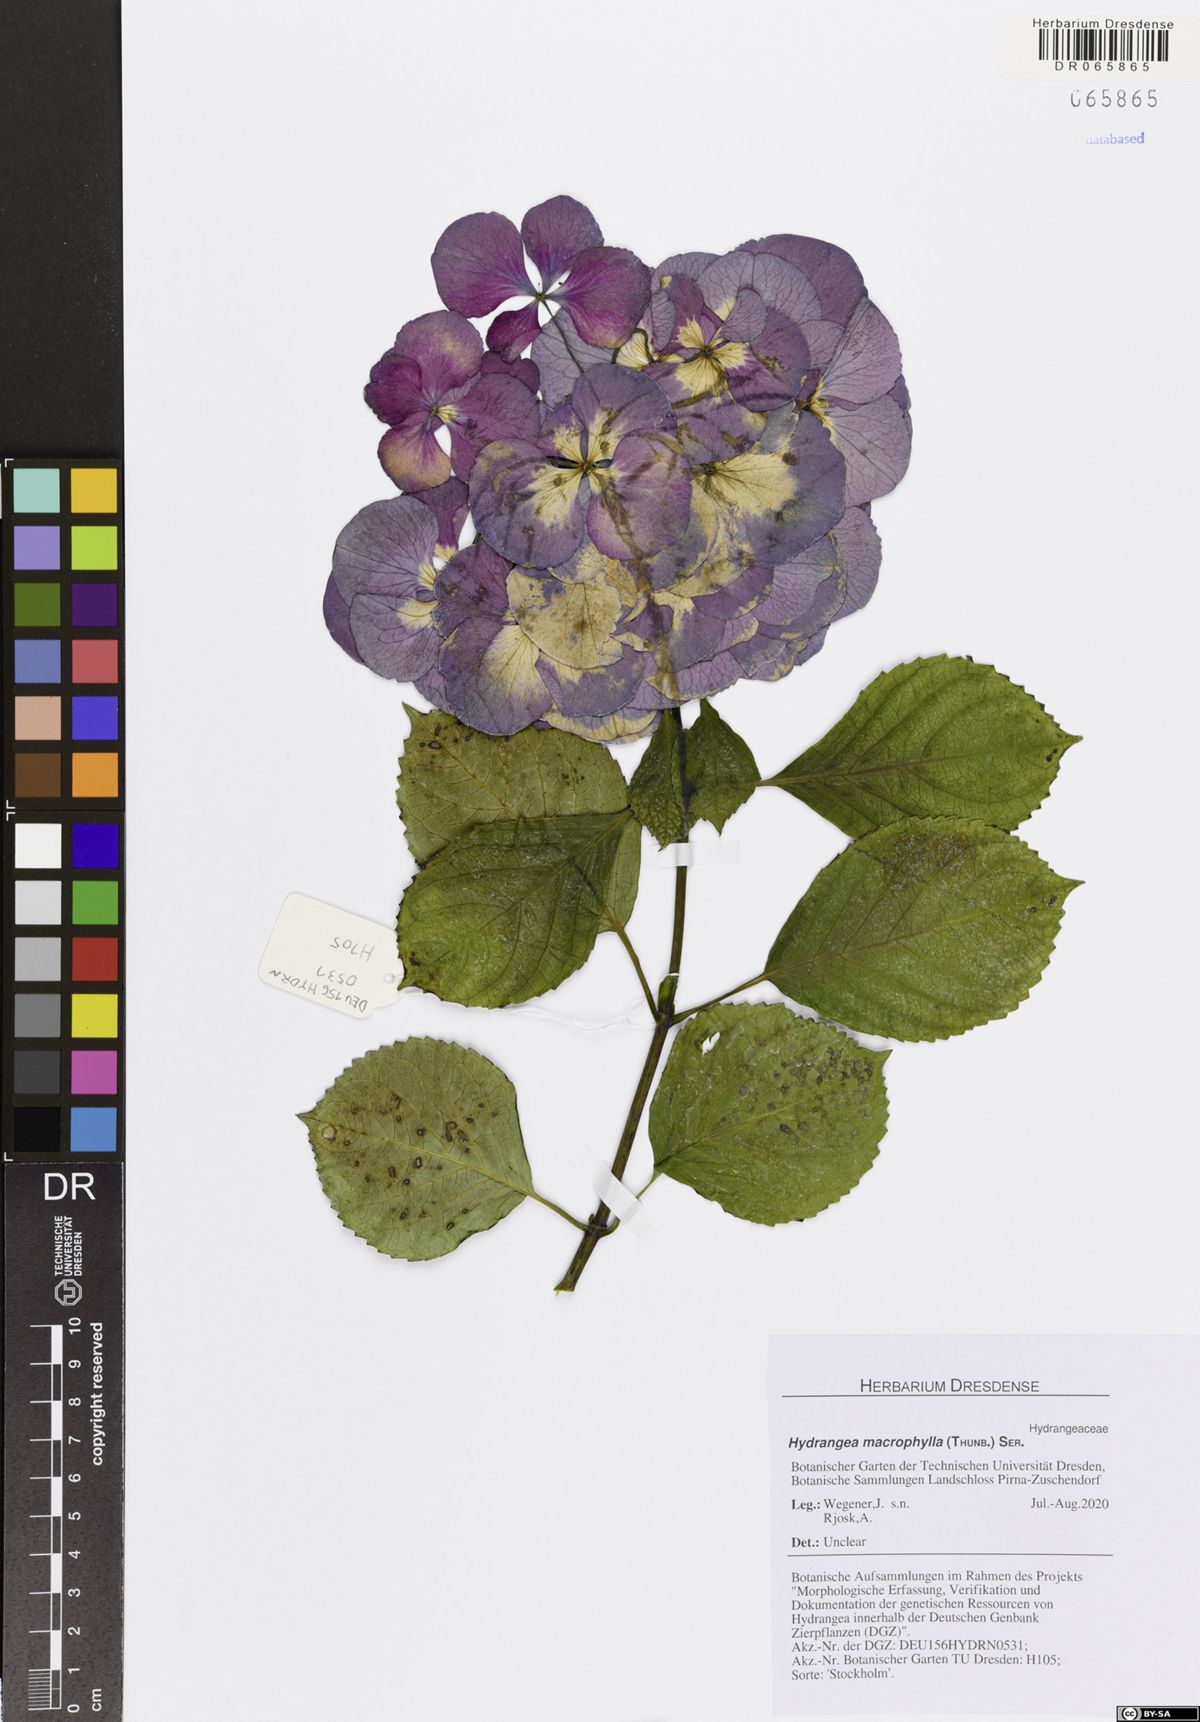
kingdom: Plantae
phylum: Tracheophyta
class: Magnoliopsida
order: Cornales
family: Hydrangeaceae
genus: Hydrangea
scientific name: Hydrangea macrophylla
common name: Hydrangea
